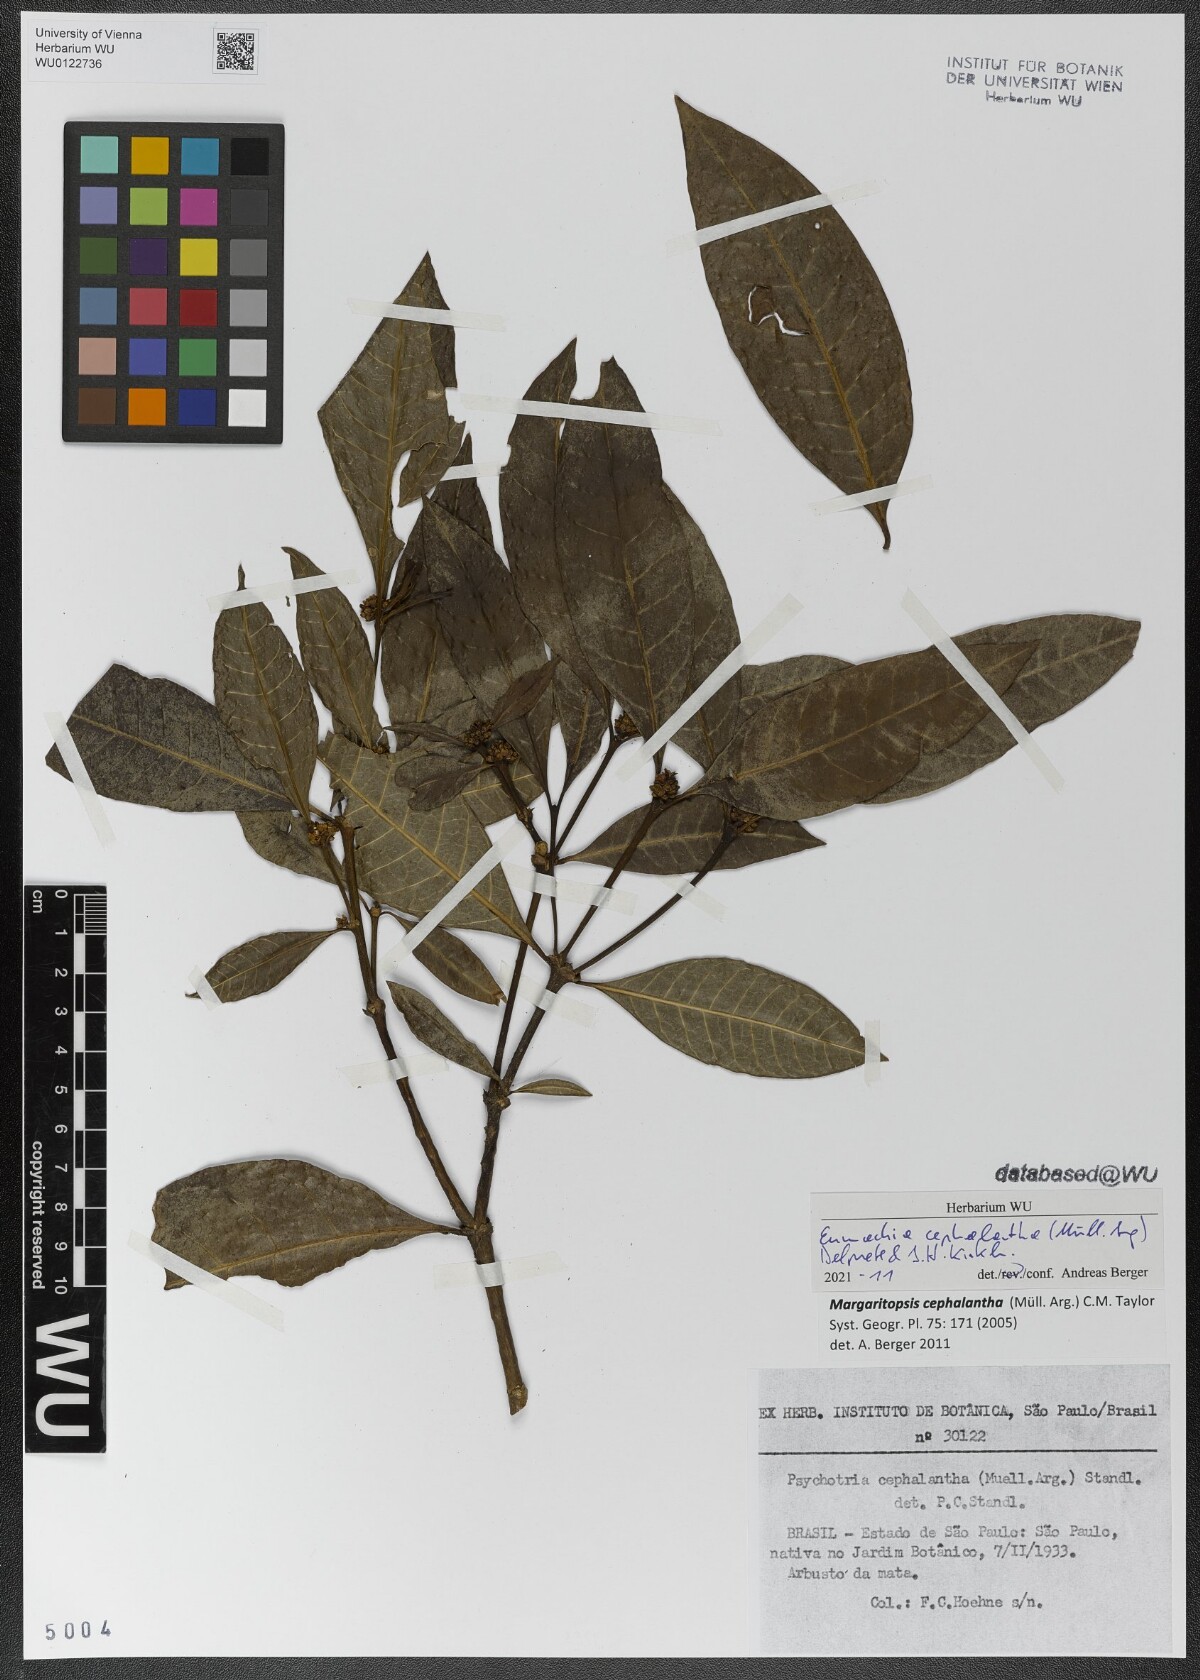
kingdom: Plantae
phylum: Tracheophyta
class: Magnoliopsida
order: Gentianales
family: Rubiaceae
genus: Eumachia
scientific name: Eumachia cephalantha
